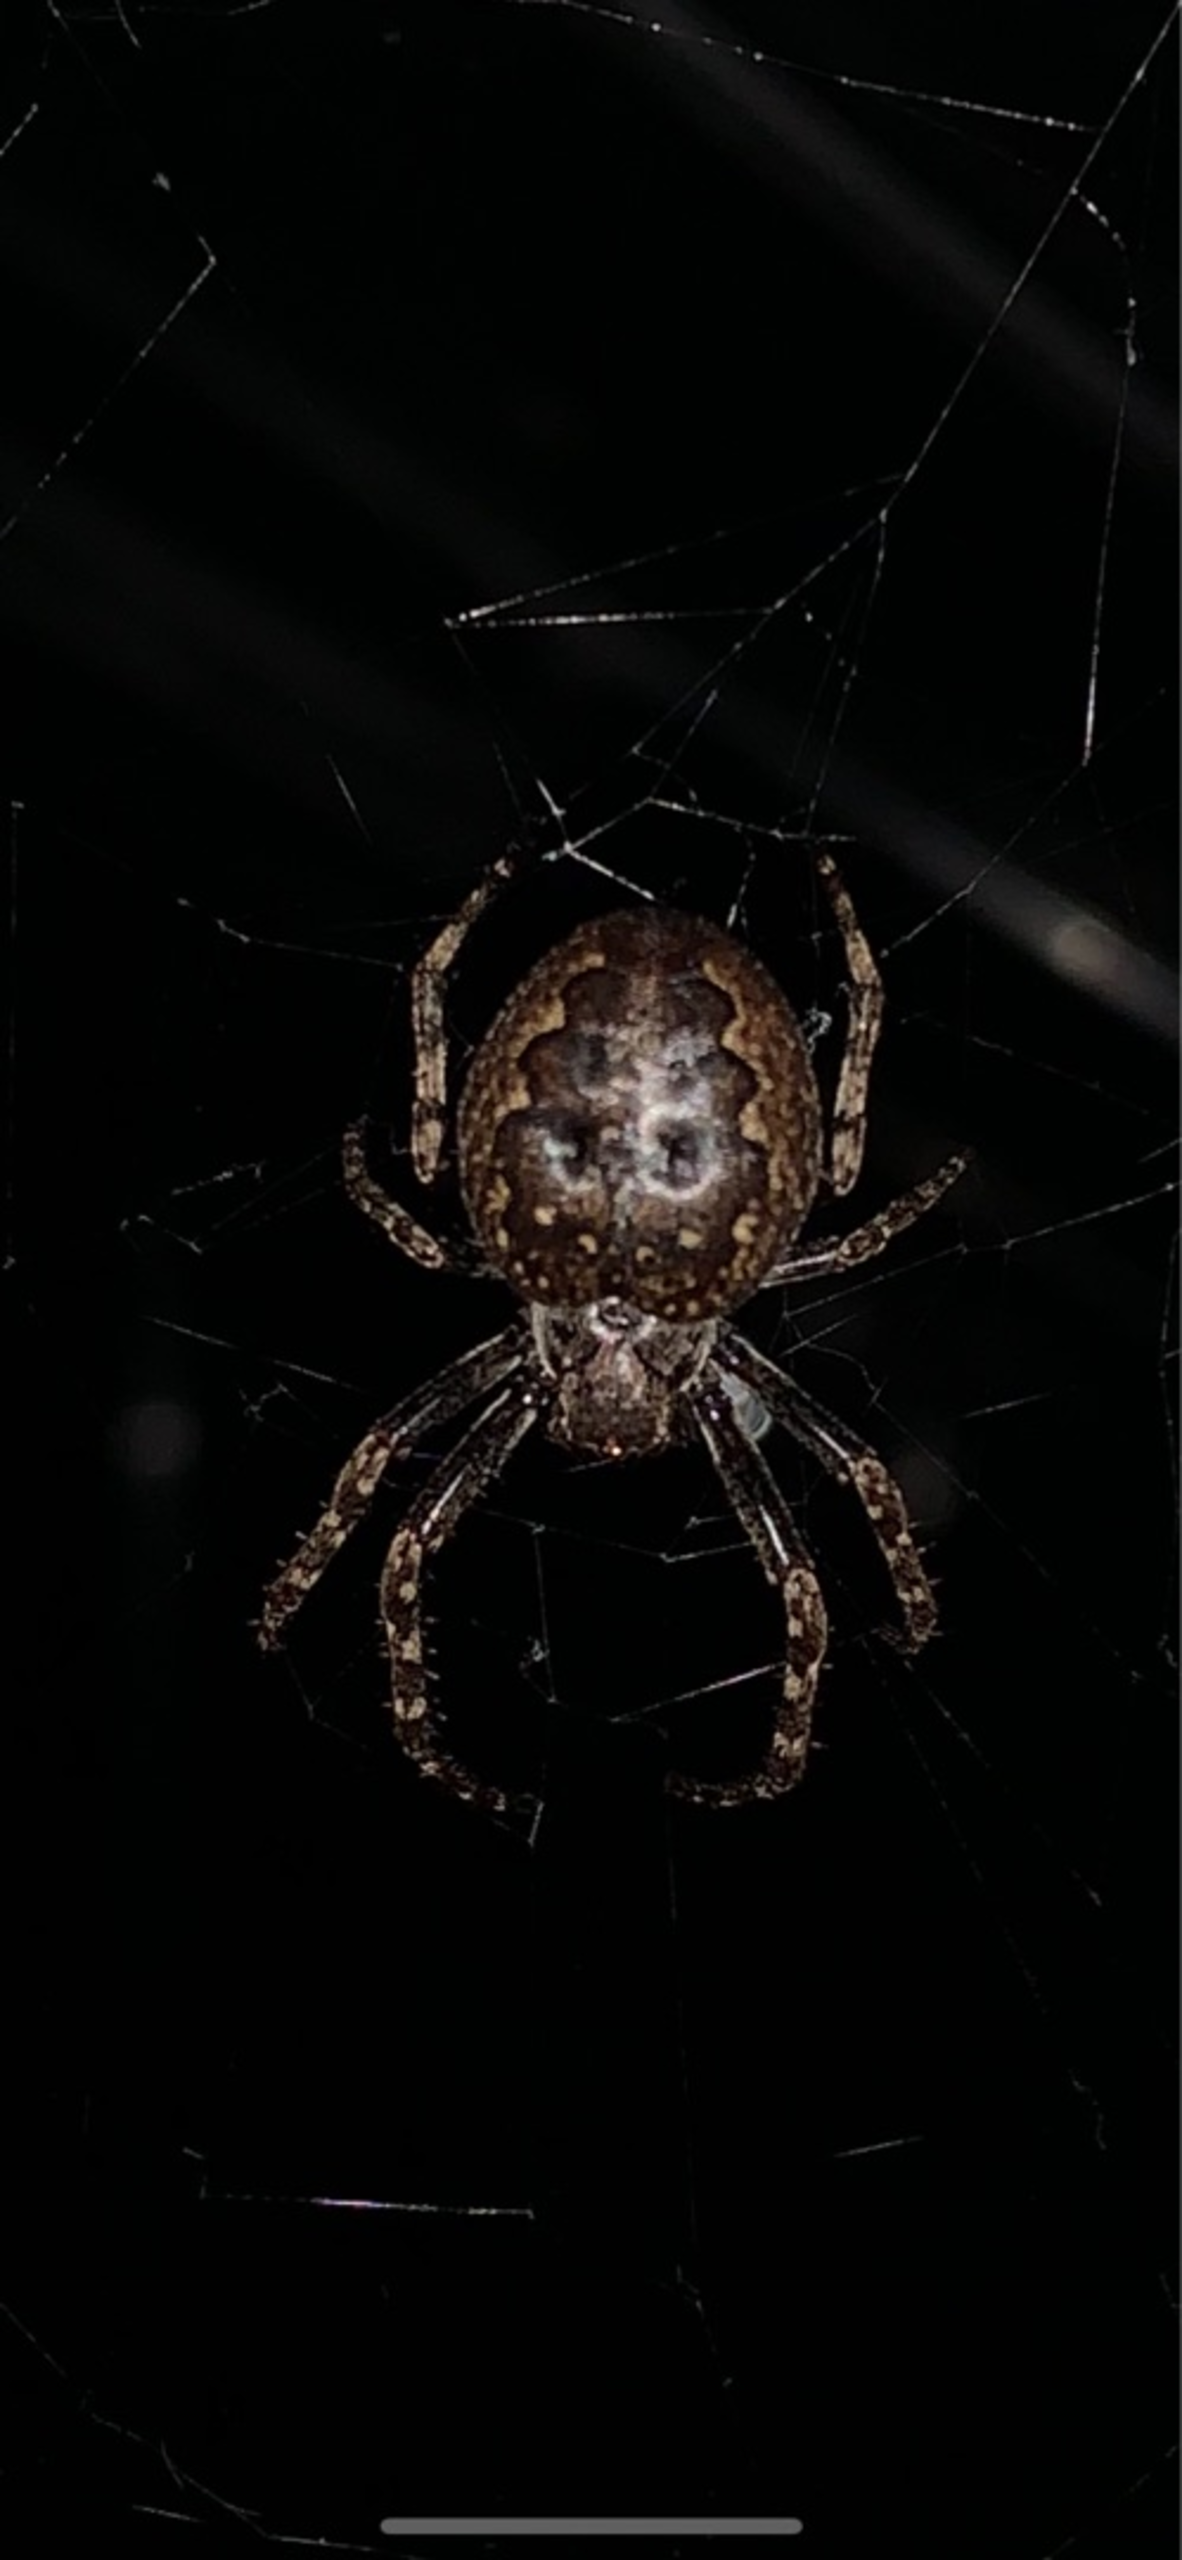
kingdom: Animalia
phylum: Arthropoda
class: Arachnida
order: Araneae
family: Araneidae
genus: Nuctenea
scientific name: Nuctenea umbratica
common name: Flad hjulspinder
